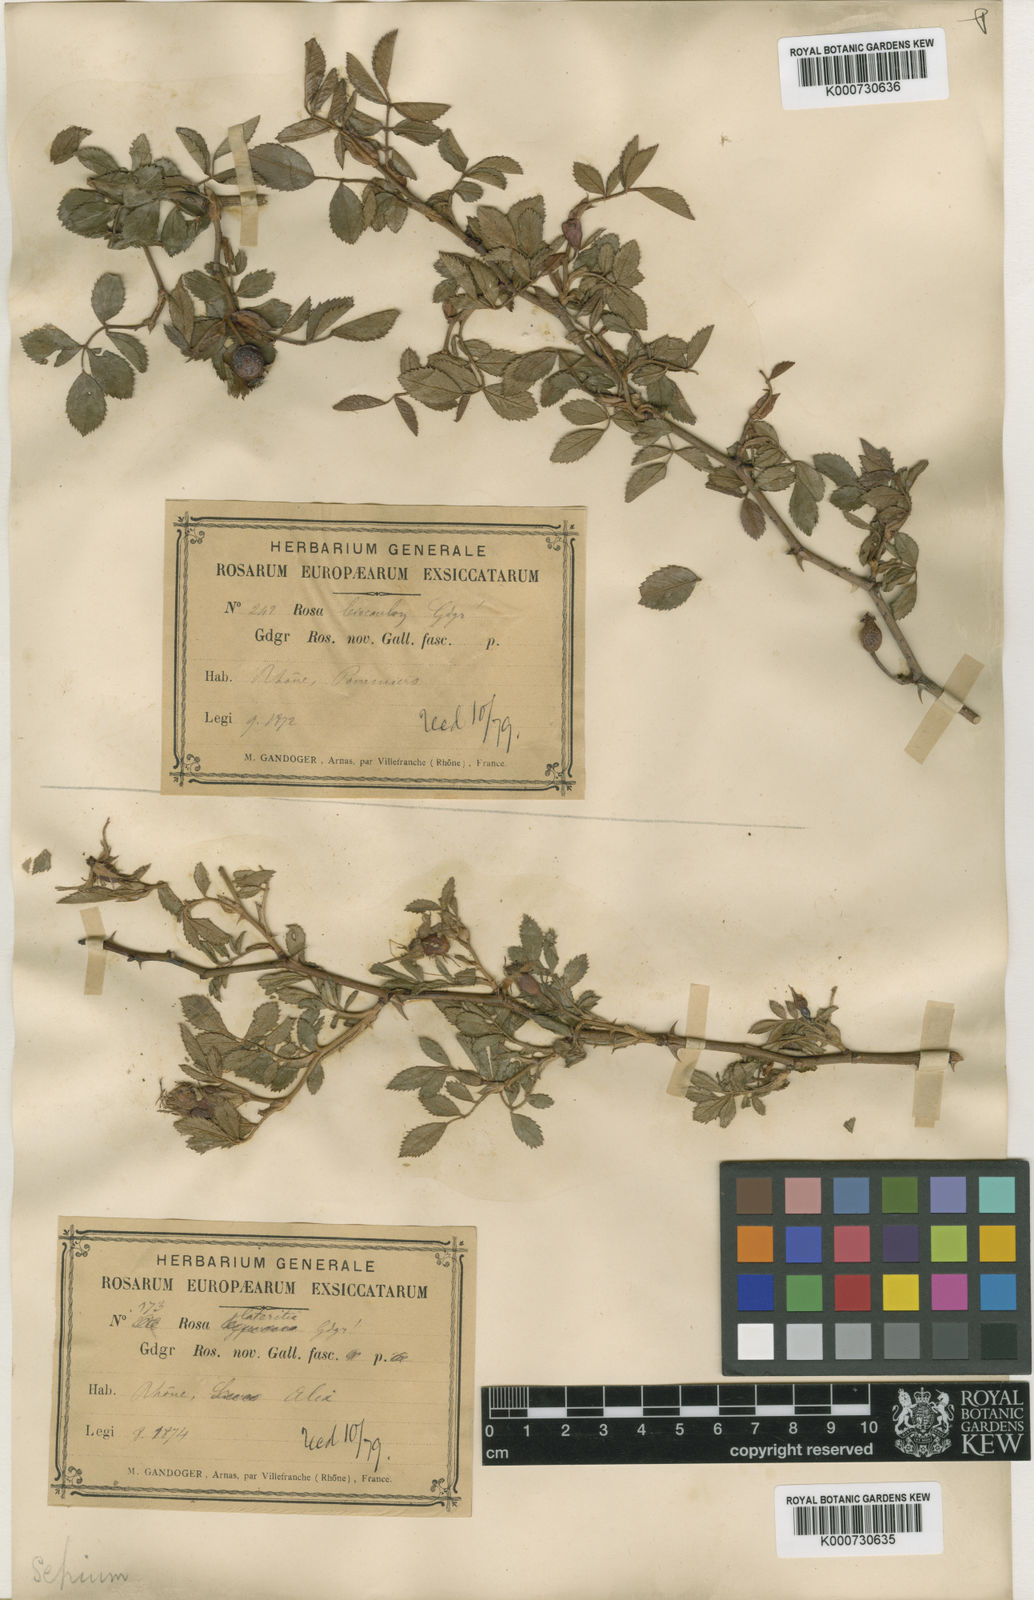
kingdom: Plantae
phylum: Tracheophyta
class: Magnoliopsida
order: Rosales
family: Rosaceae
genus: Rosa
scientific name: Rosa agrestis
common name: Fieldbriar
